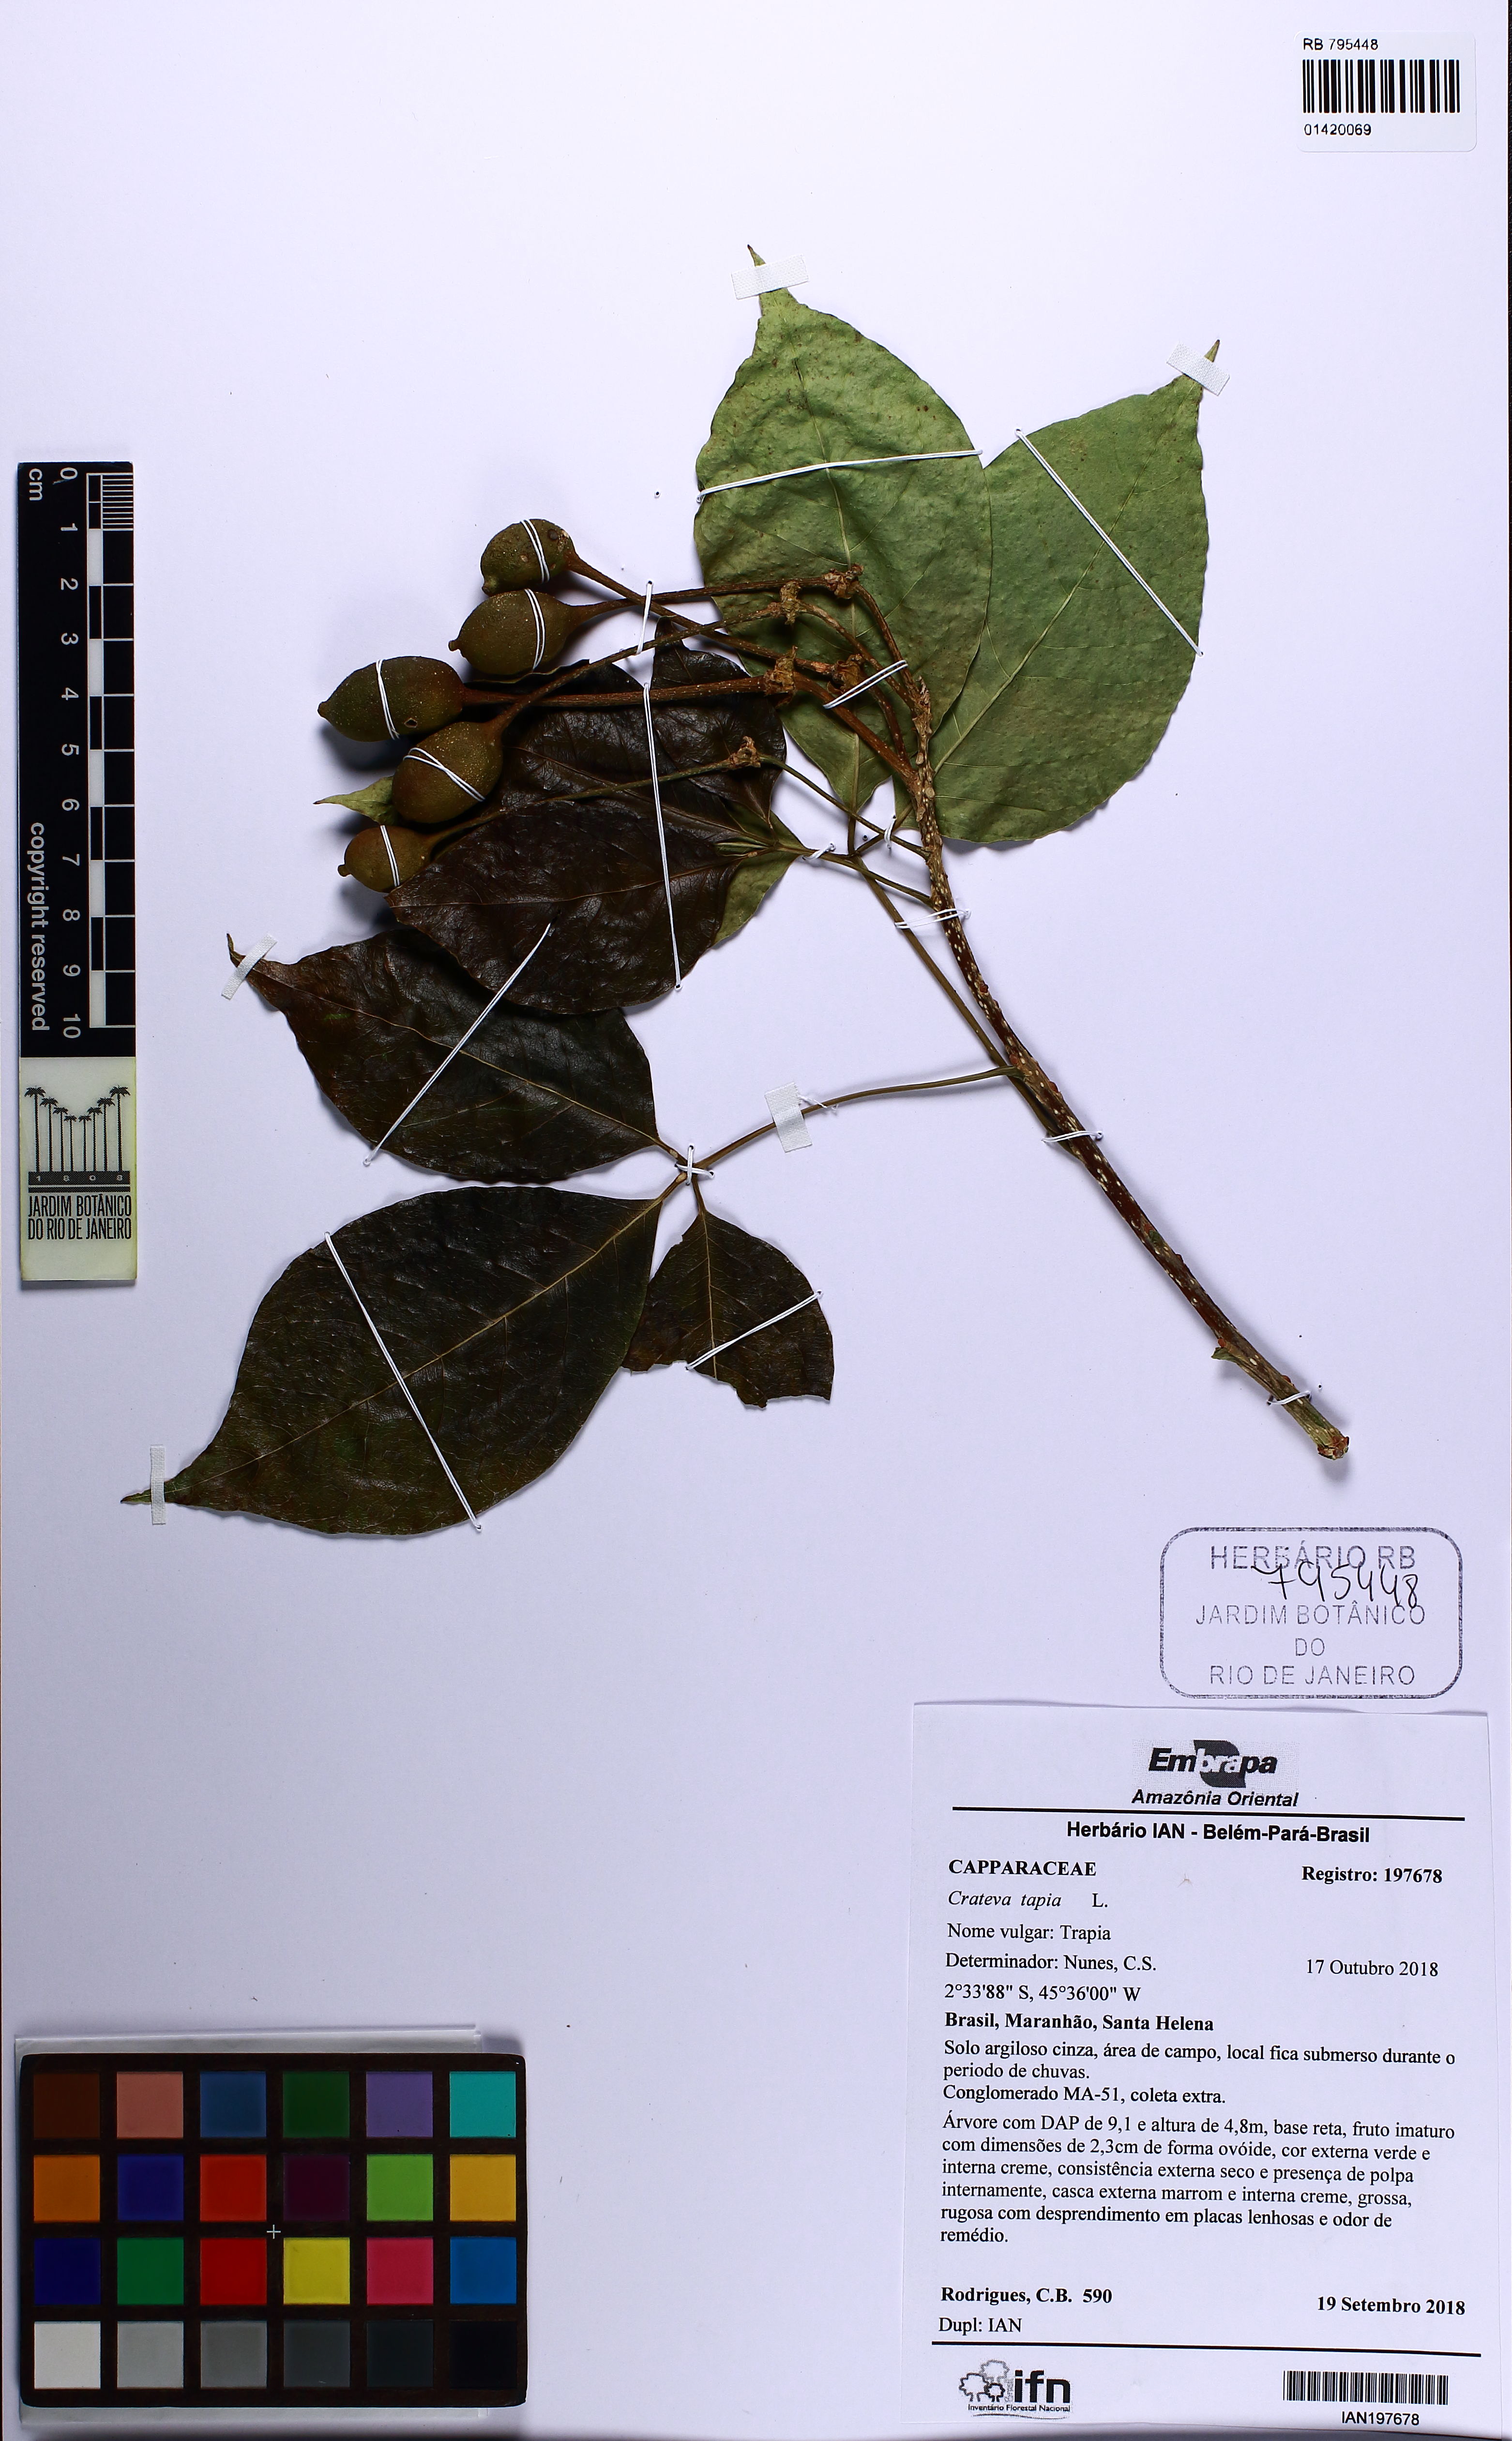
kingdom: Plantae
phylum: Tracheophyta
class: Magnoliopsida
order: Brassicales
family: Capparaceae
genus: Crateva
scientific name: Crateva tapia
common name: Garlic-pear
